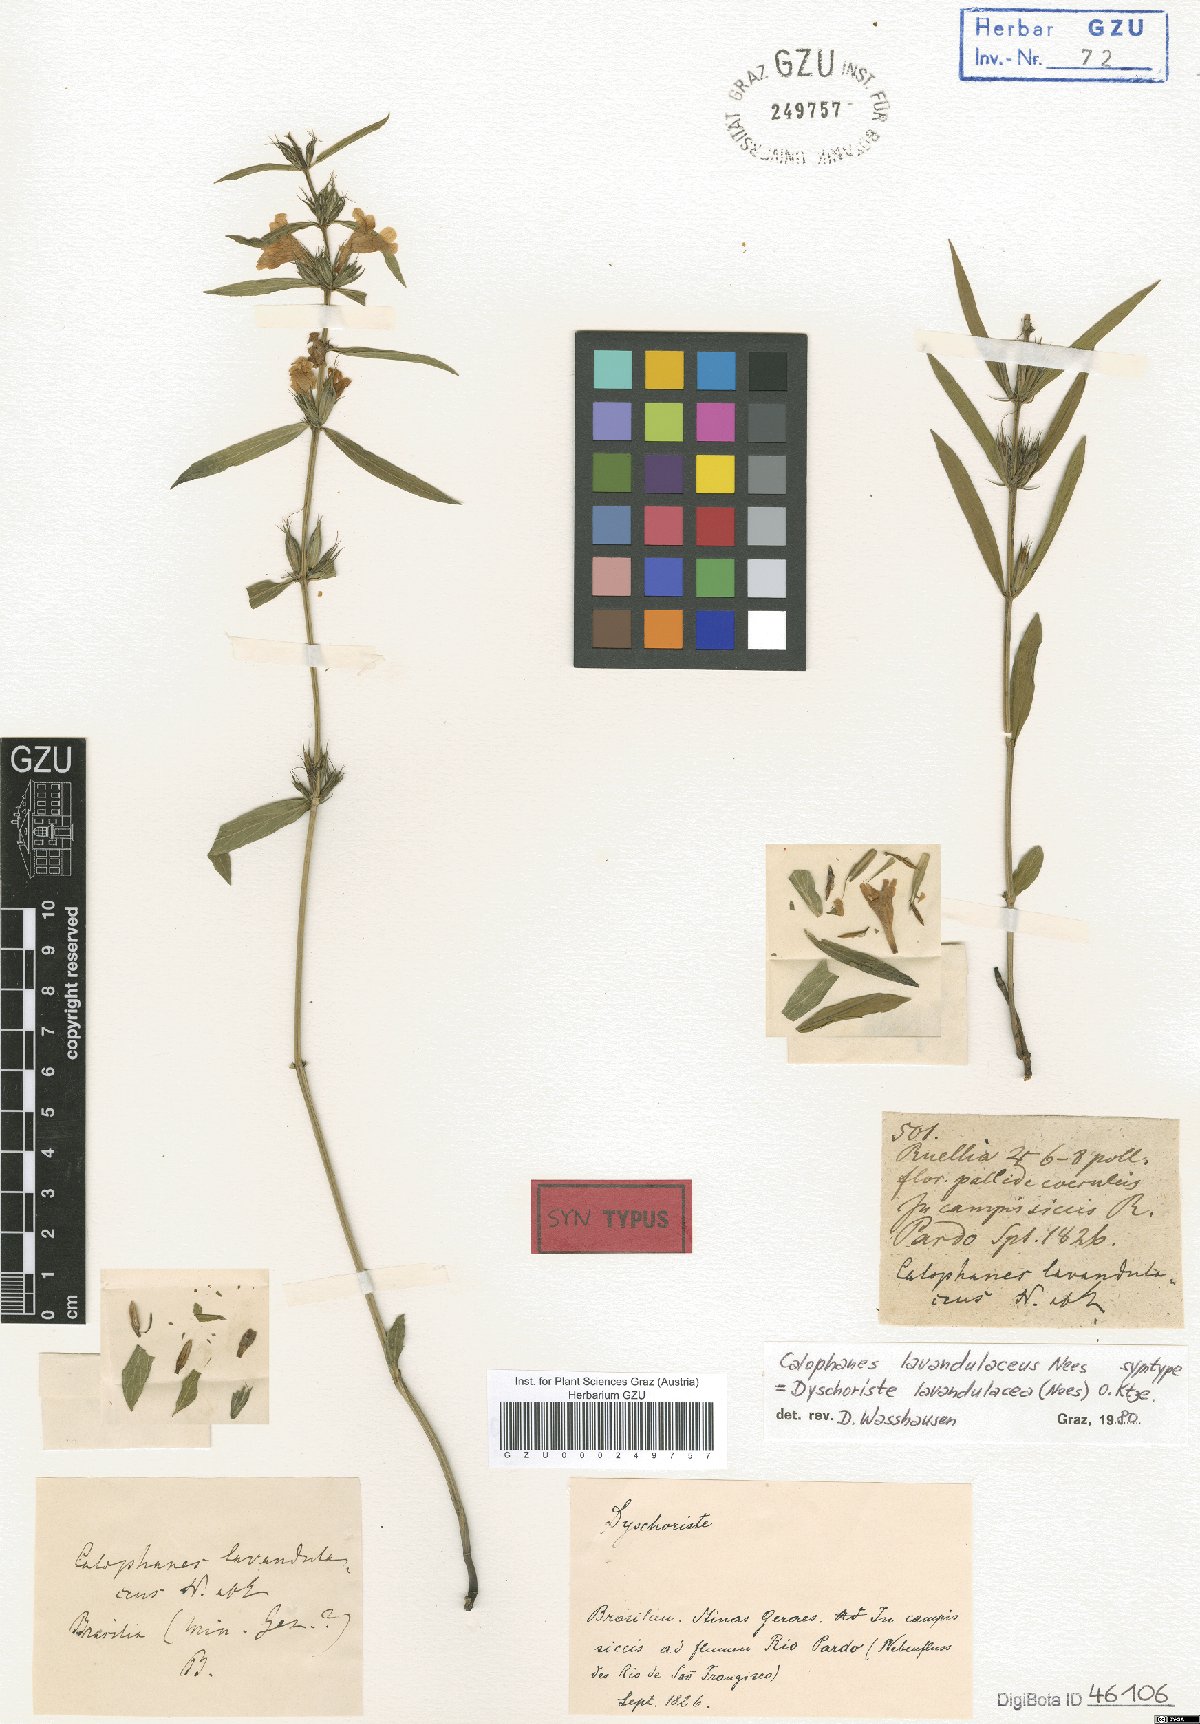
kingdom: Plantae
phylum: Tracheophyta
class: Magnoliopsida
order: Lamiales
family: Acanthaceae
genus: Dyschoriste
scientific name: Dyschoriste lavandulacea
